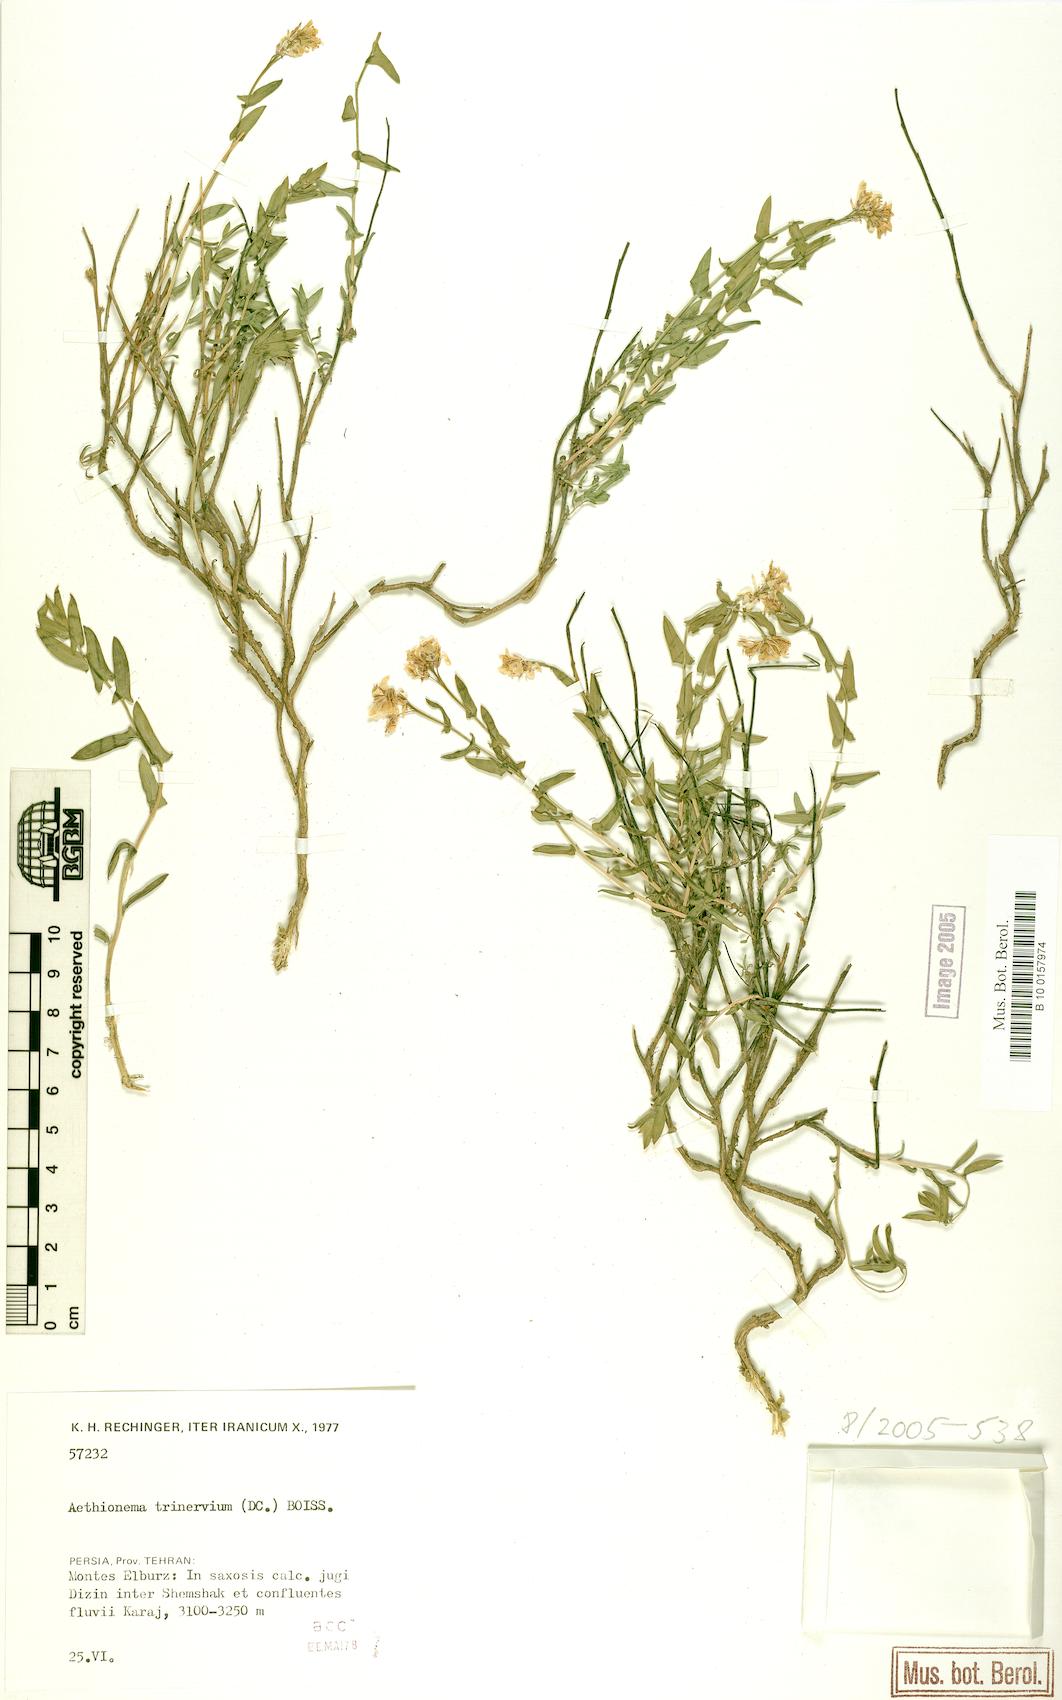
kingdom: Plantae
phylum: Tracheophyta
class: Magnoliopsida
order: Brassicales
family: Brassicaceae
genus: Noccaea
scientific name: Noccaea trinervia
